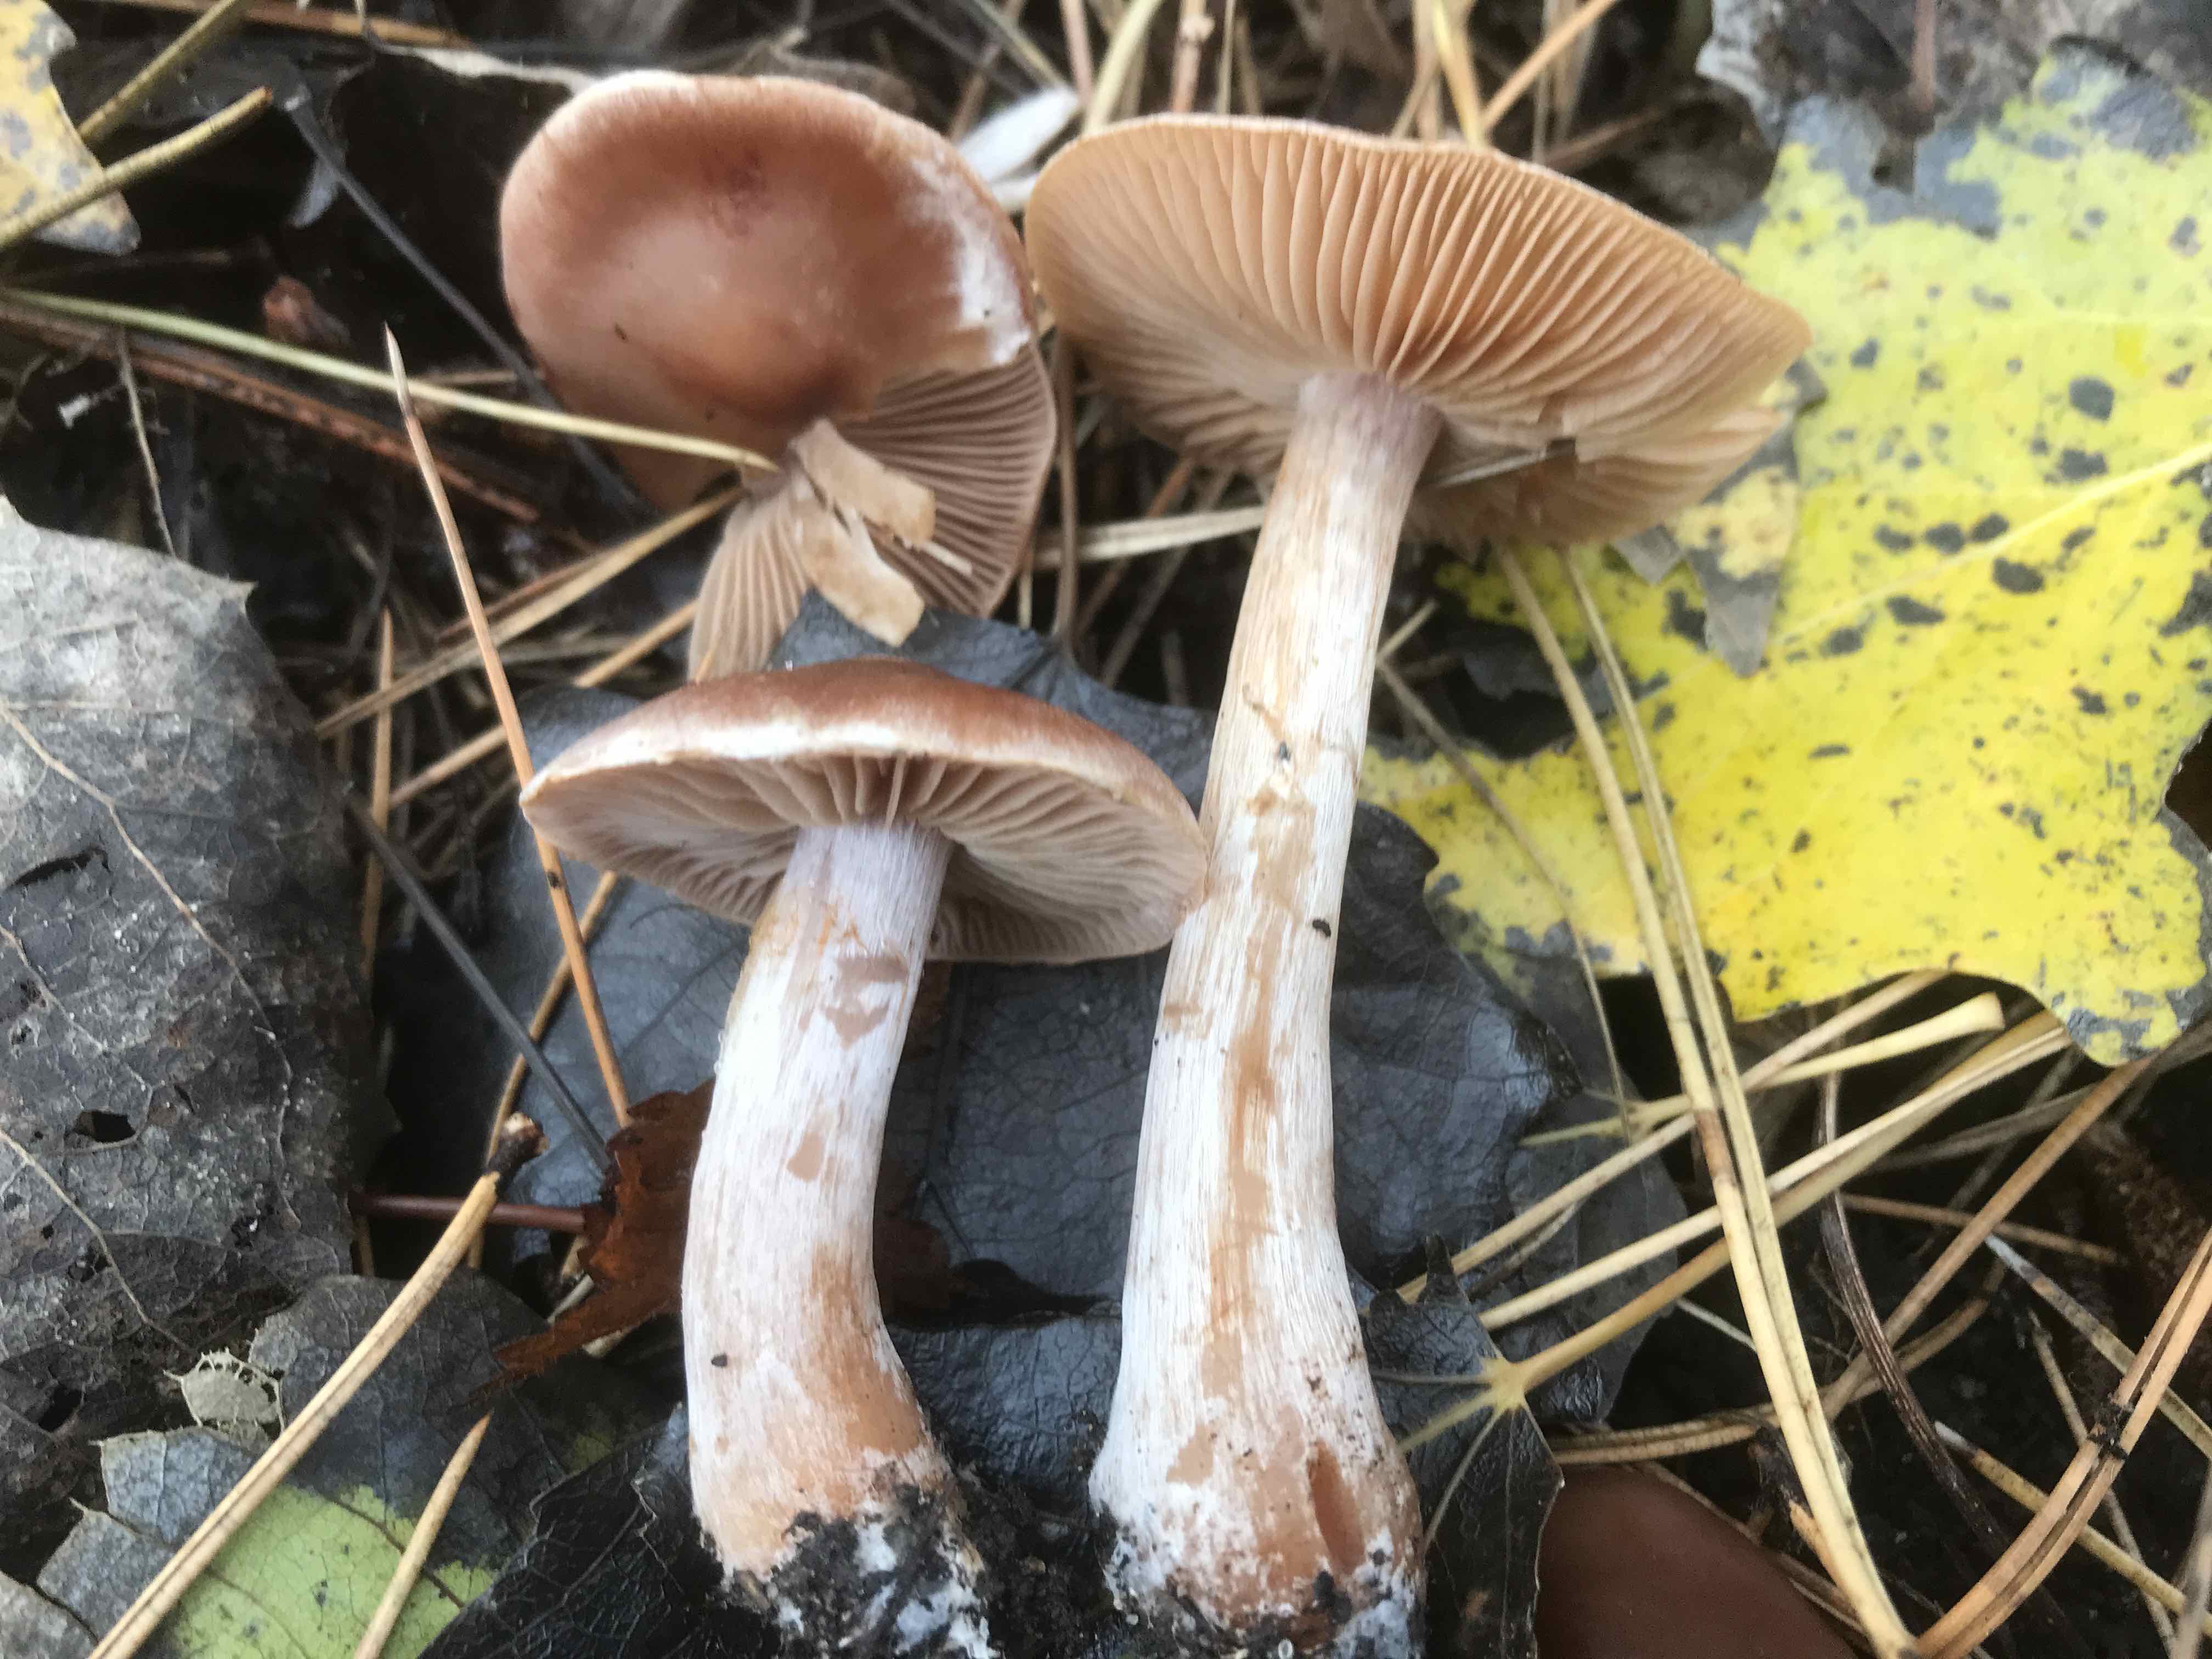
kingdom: Fungi
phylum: Basidiomycota
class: Agaricomycetes
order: Agaricales
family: Cortinariaceae
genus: Cortinarius
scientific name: Cortinarius saturninus
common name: brunviolet slørhat
